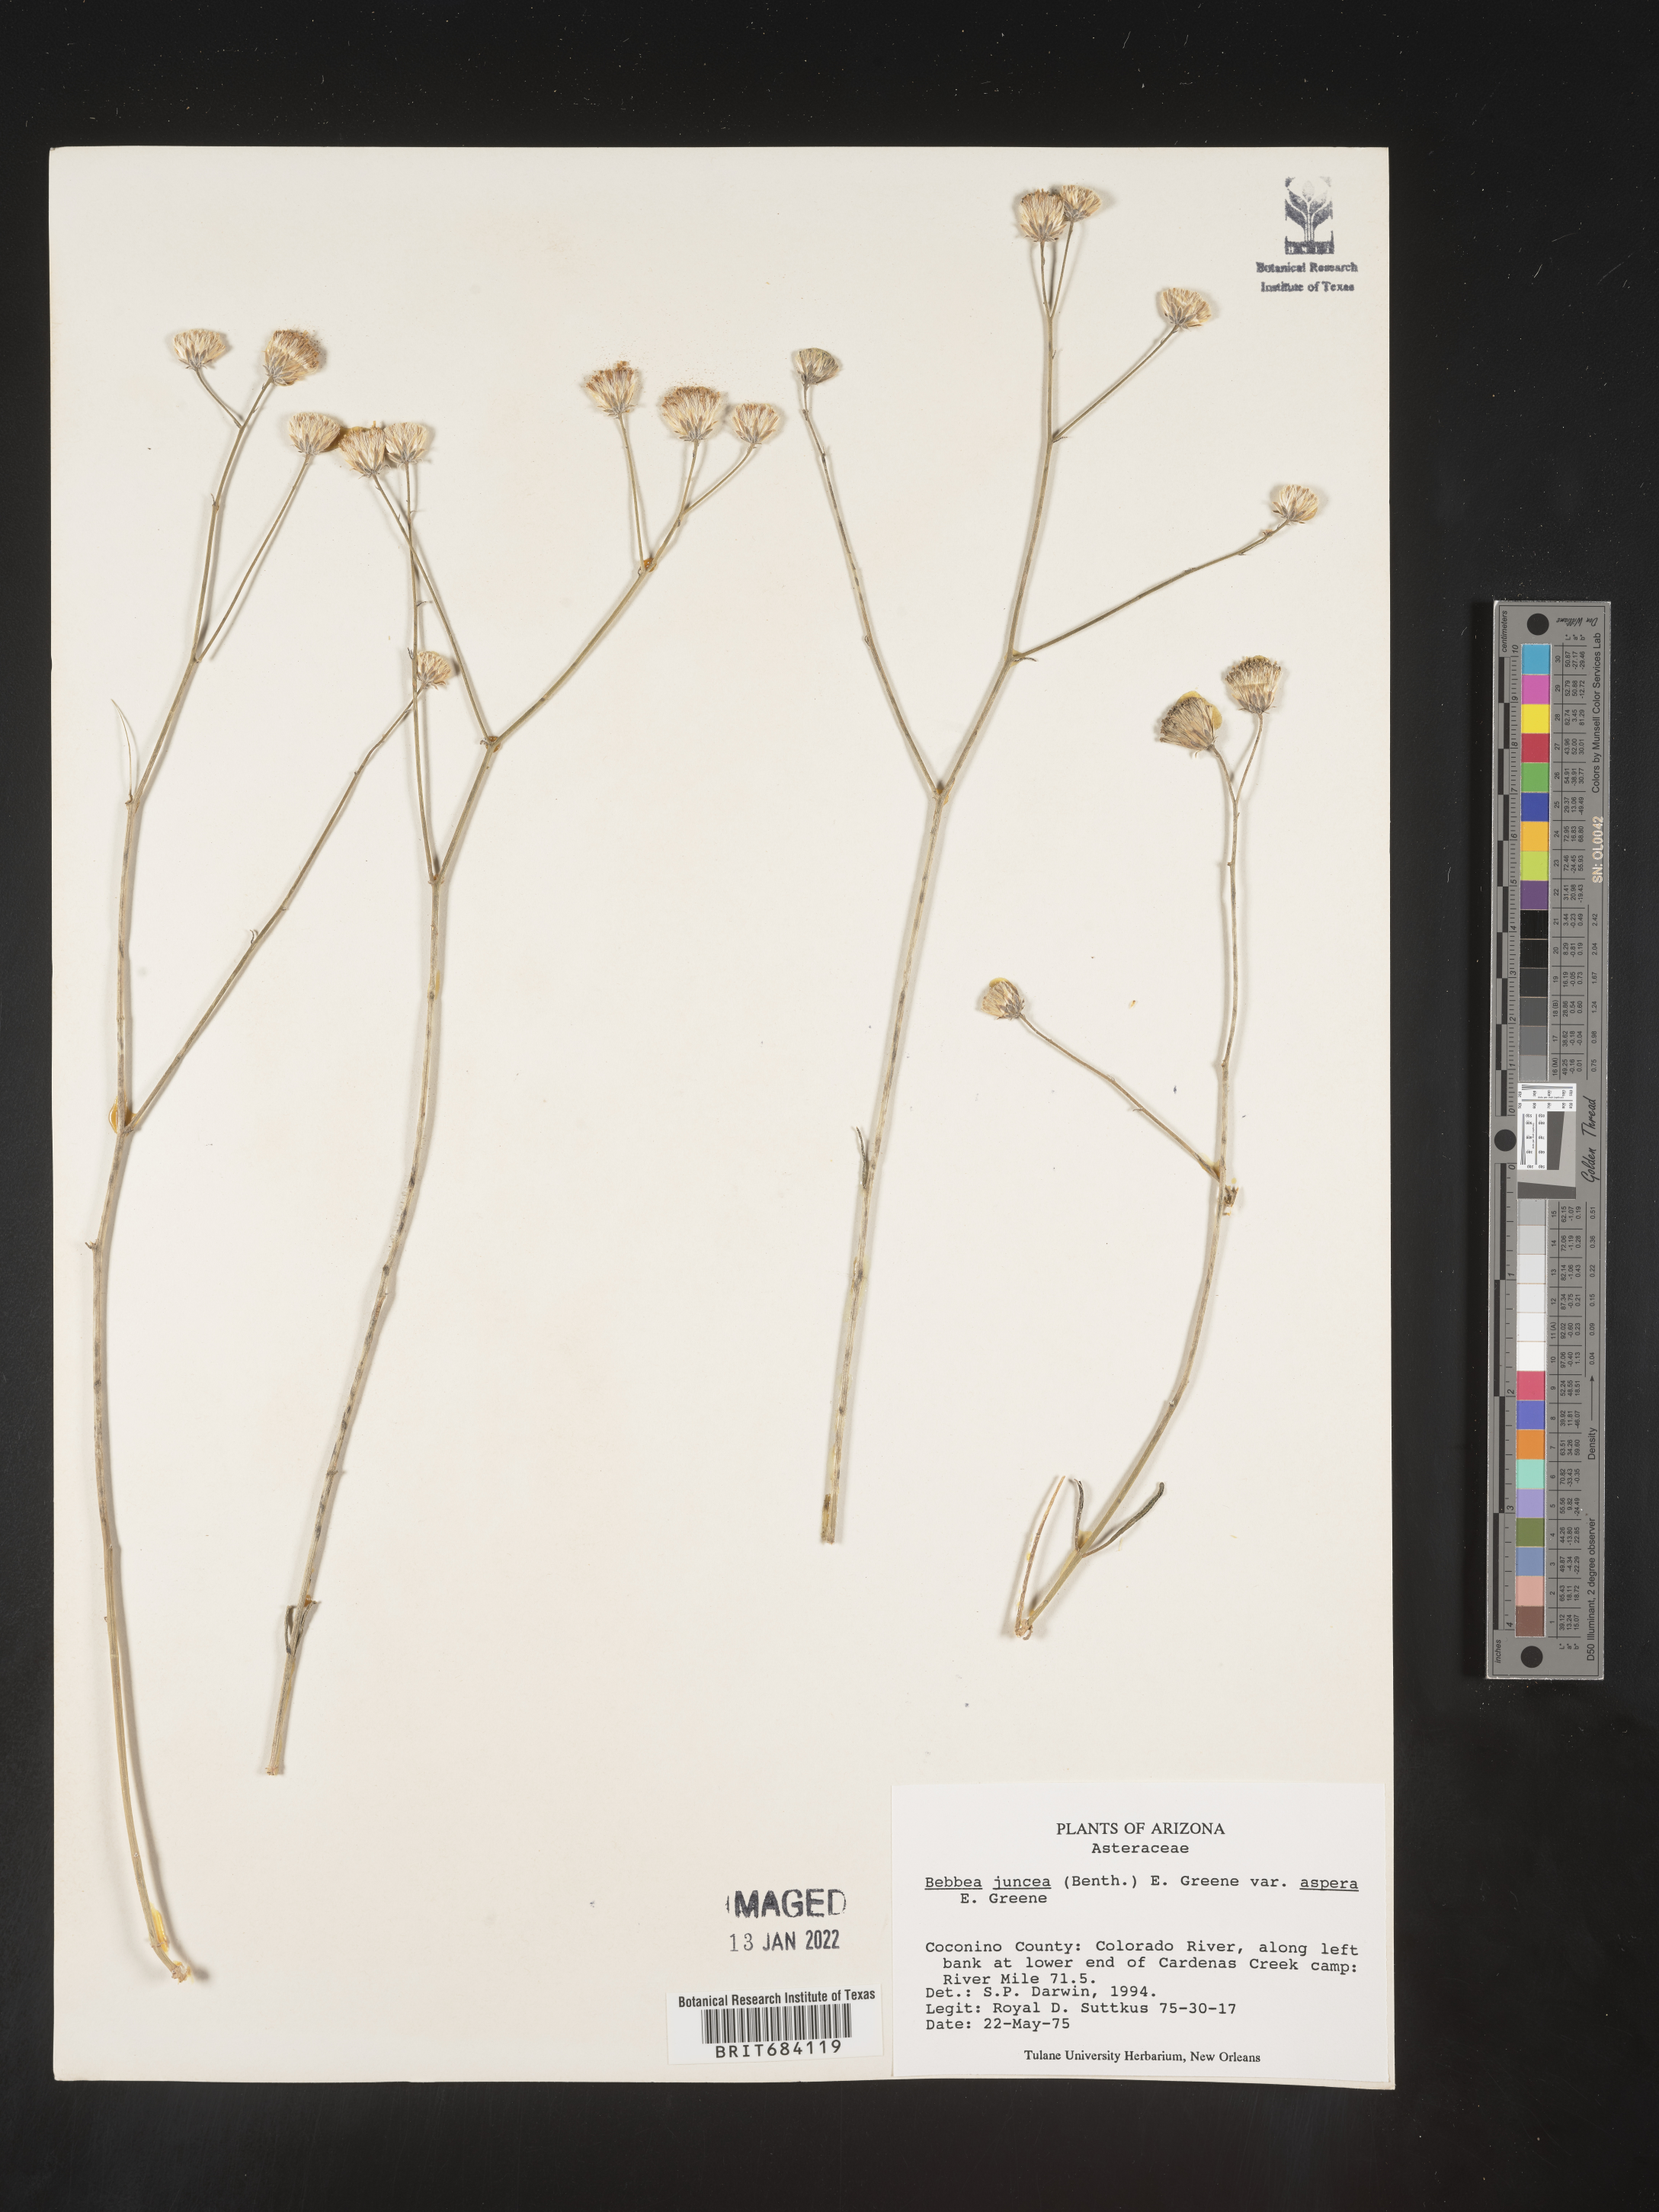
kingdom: Plantae
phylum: Tracheophyta
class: Magnoliopsida
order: Asterales
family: Asteraceae
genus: Bebbia
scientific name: Bebbia
